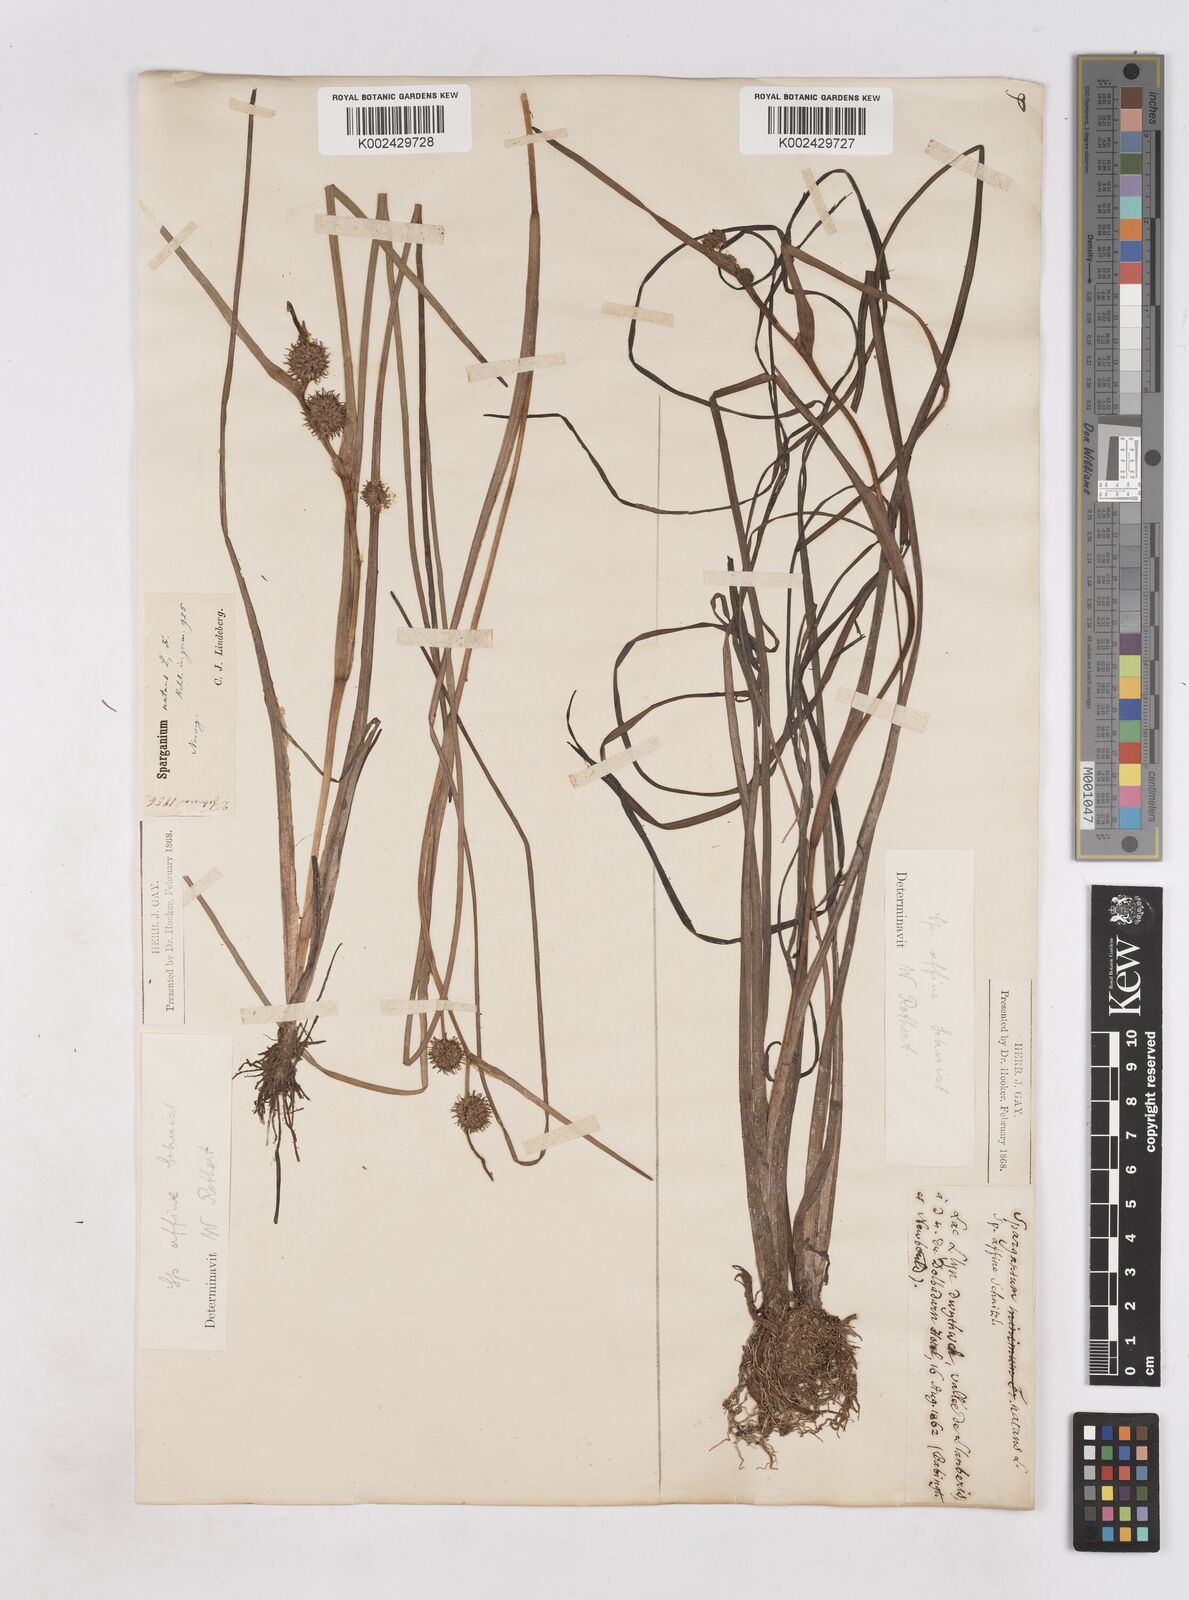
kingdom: Plantae
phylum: Tracheophyta
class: Liliopsida
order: Poales
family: Typhaceae
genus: Sparganium
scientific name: Sparganium angustifolium
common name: Floating bur-reed
